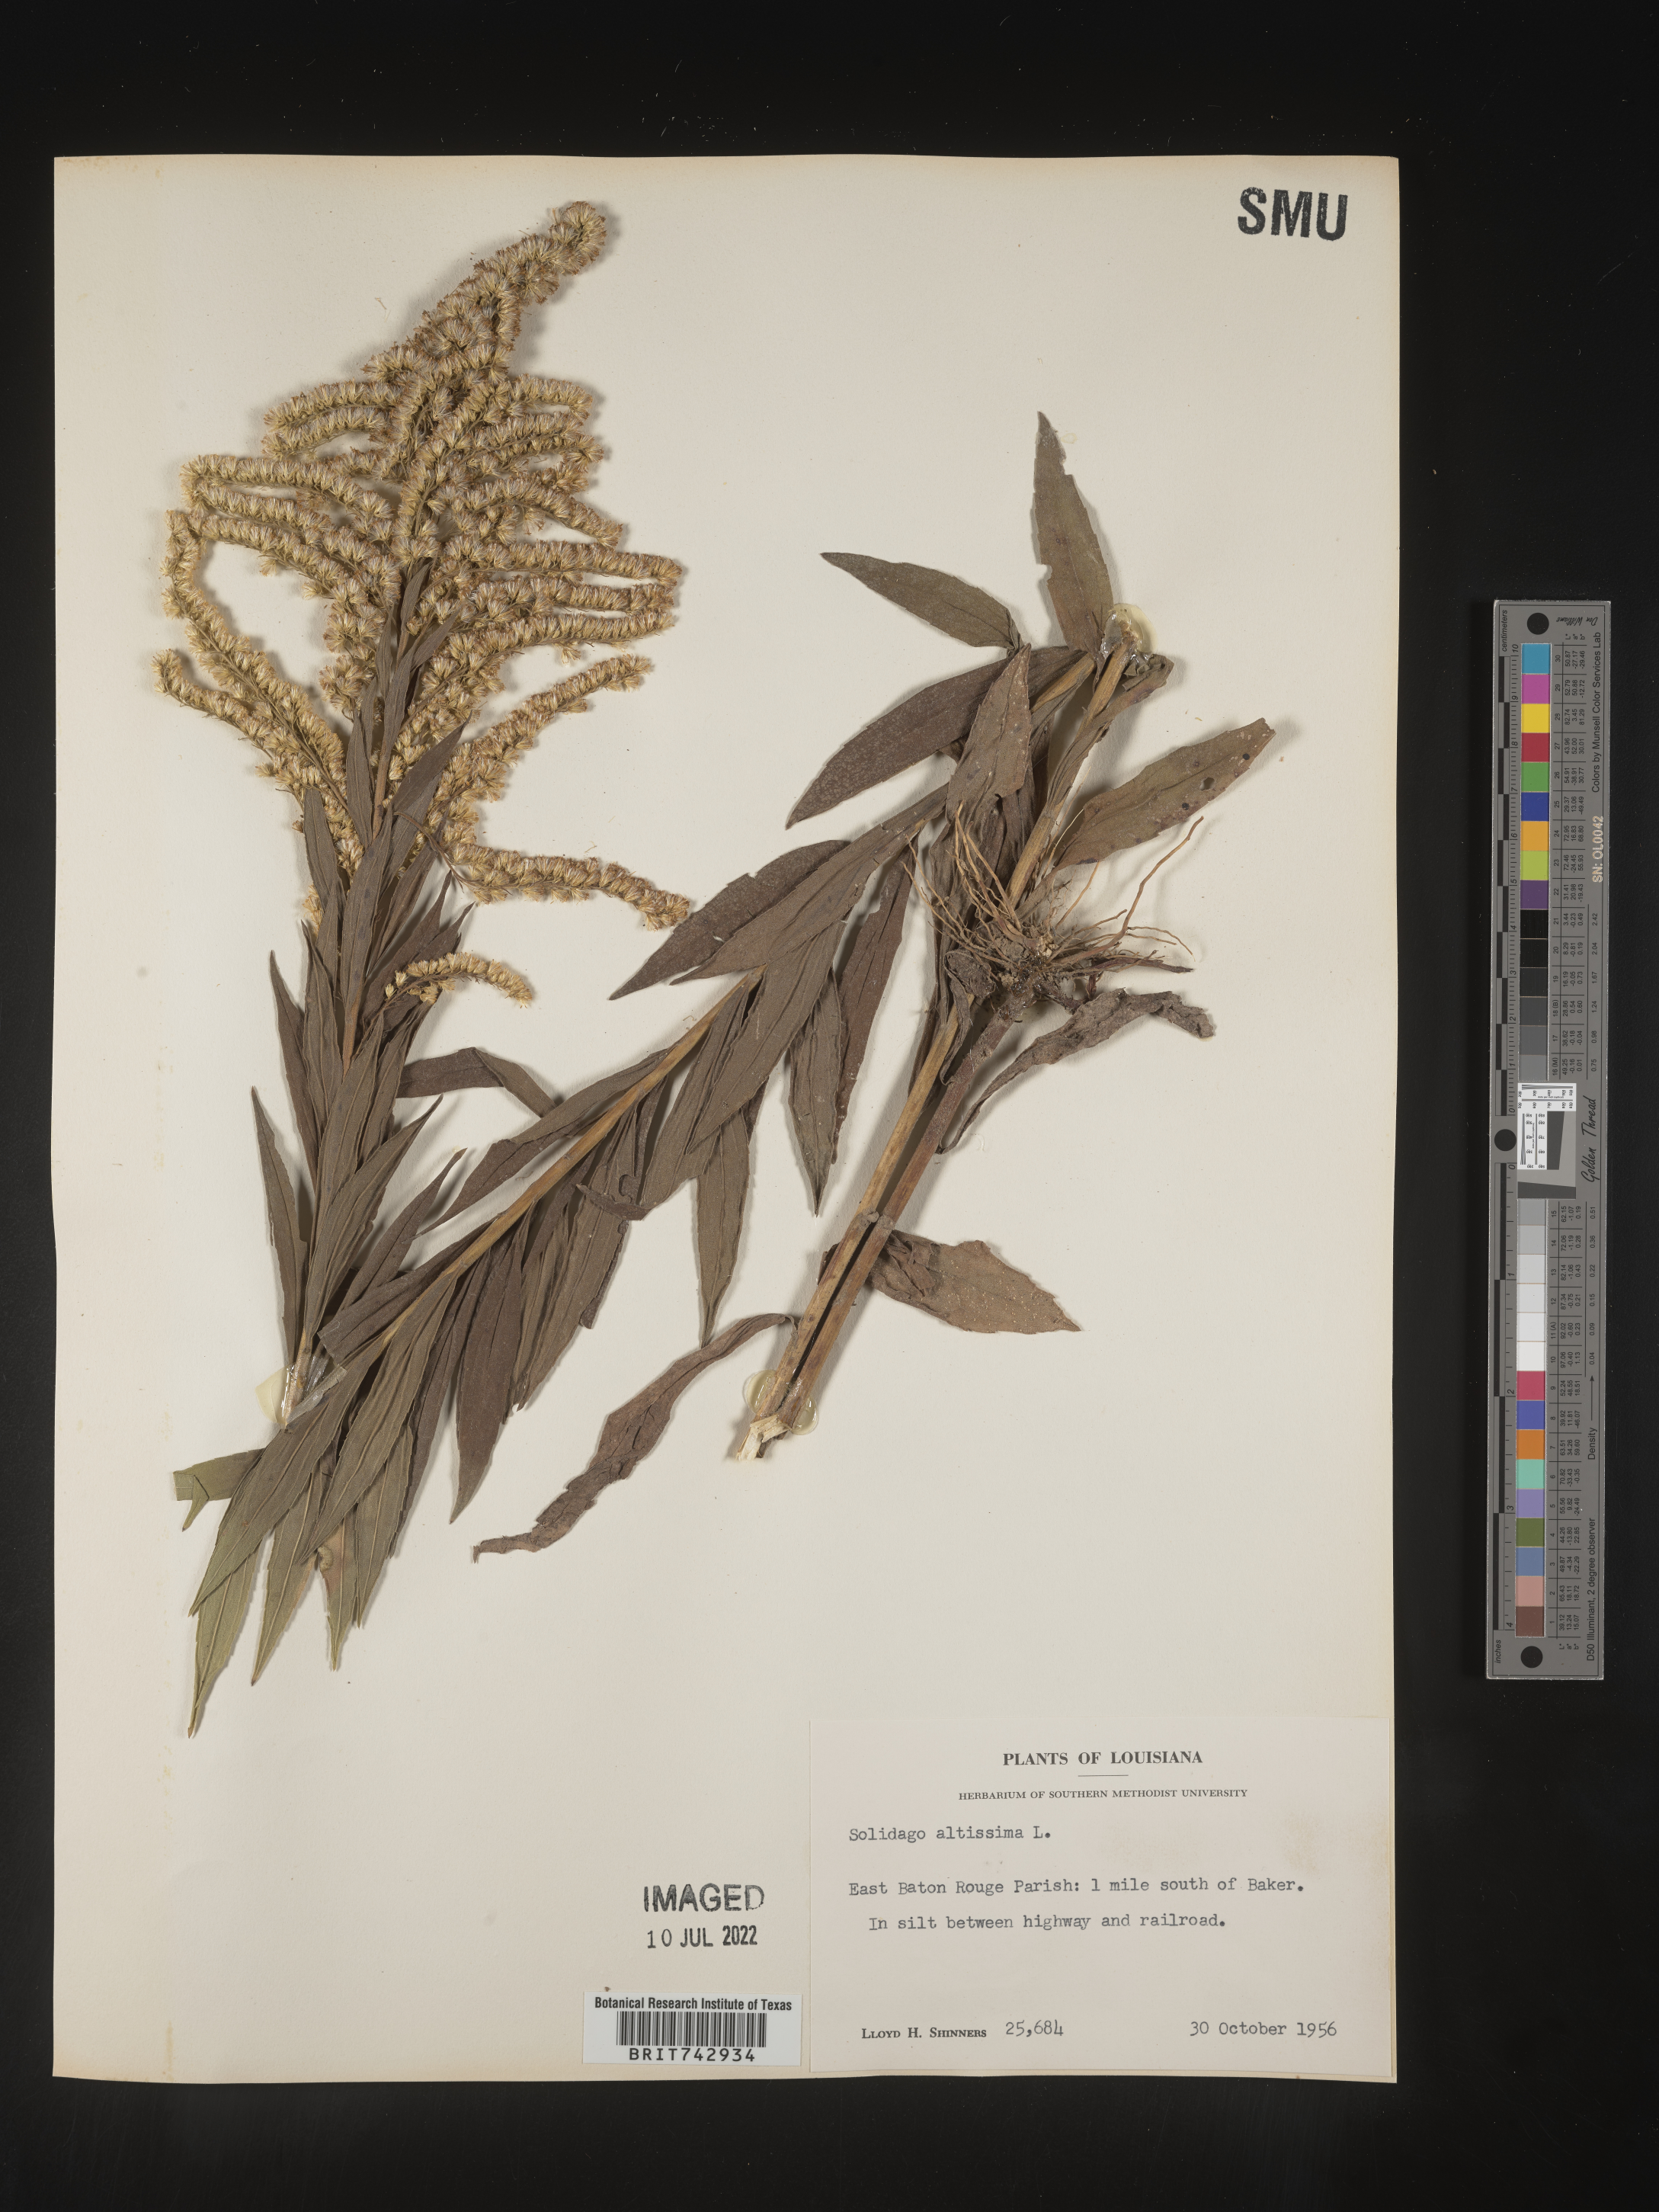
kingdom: Plantae
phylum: Tracheophyta
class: Magnoliopsida
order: Asterales
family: Asteraceae
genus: Solidago
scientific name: Solidago altissima
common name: Late goldenrod
